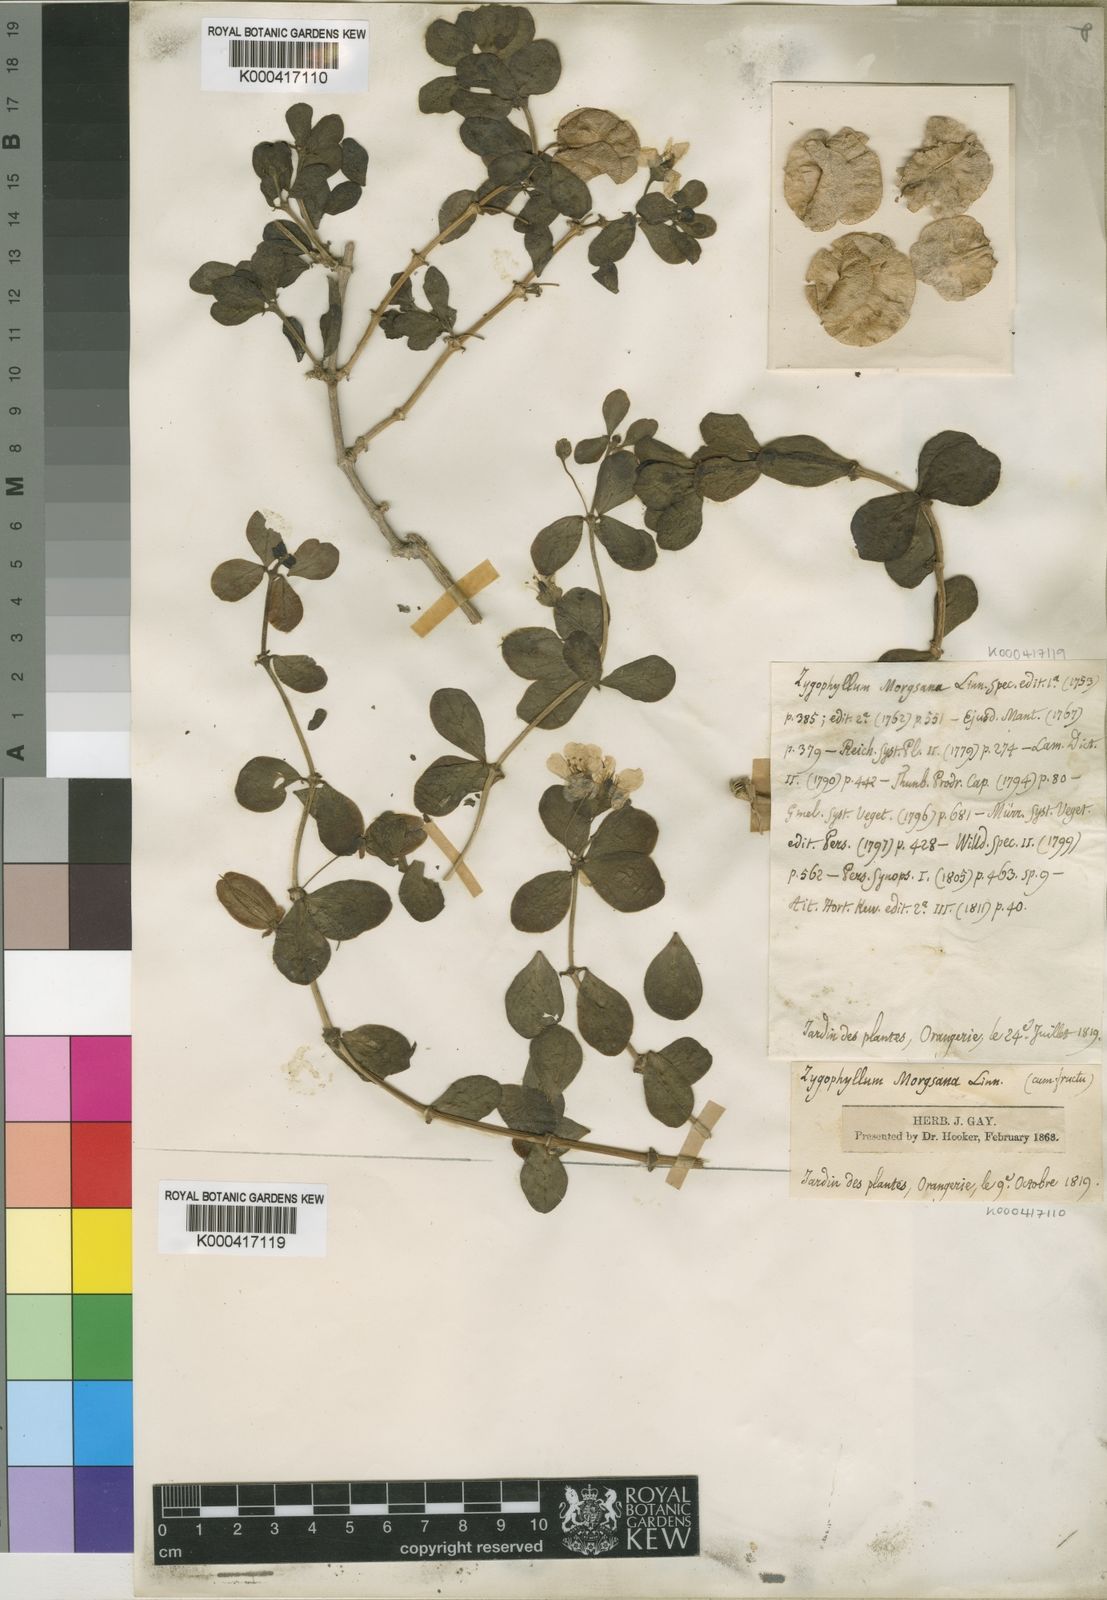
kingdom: Plantae
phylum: Tracheophyta
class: Magnoliopsida
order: Zygophyllales
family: Zygophyllaceae
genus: Roepera
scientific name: Roepera morgsana
